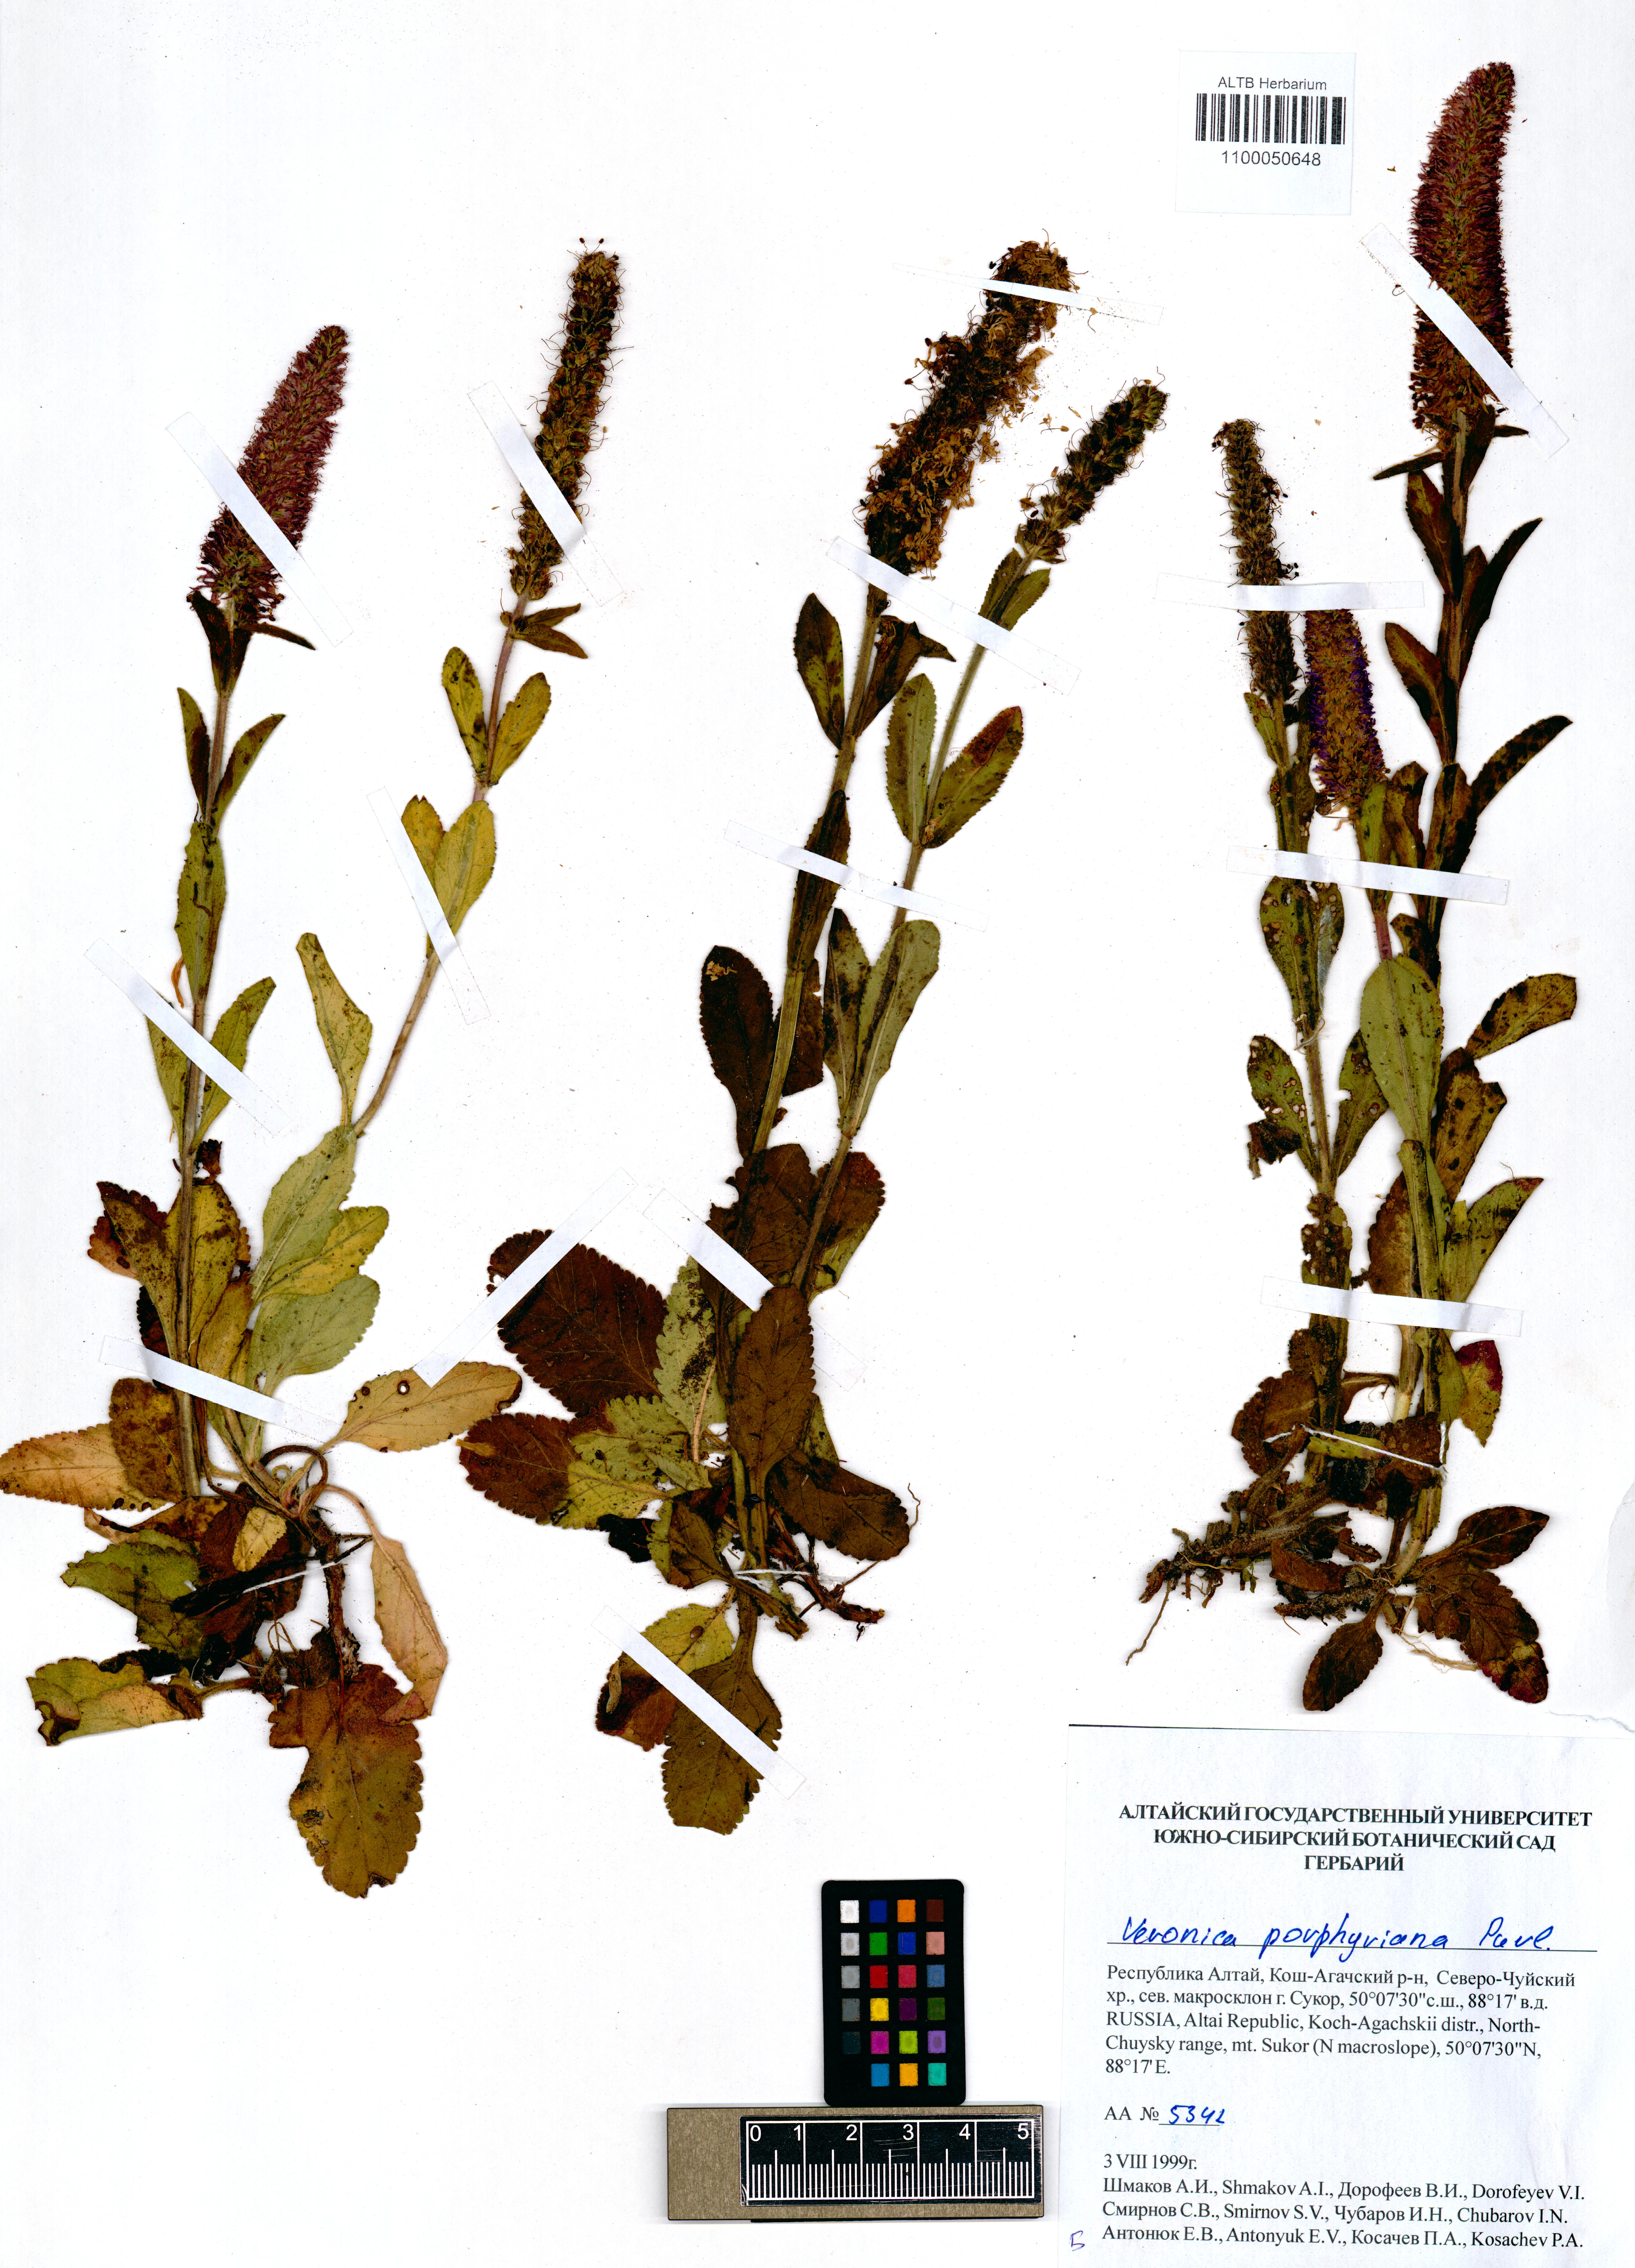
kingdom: Plantae
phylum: Tracheophyta
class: Magnoliopsida
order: Lamiales
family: Plantaginaceae
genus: Veronica
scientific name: Veronica porphyriana
